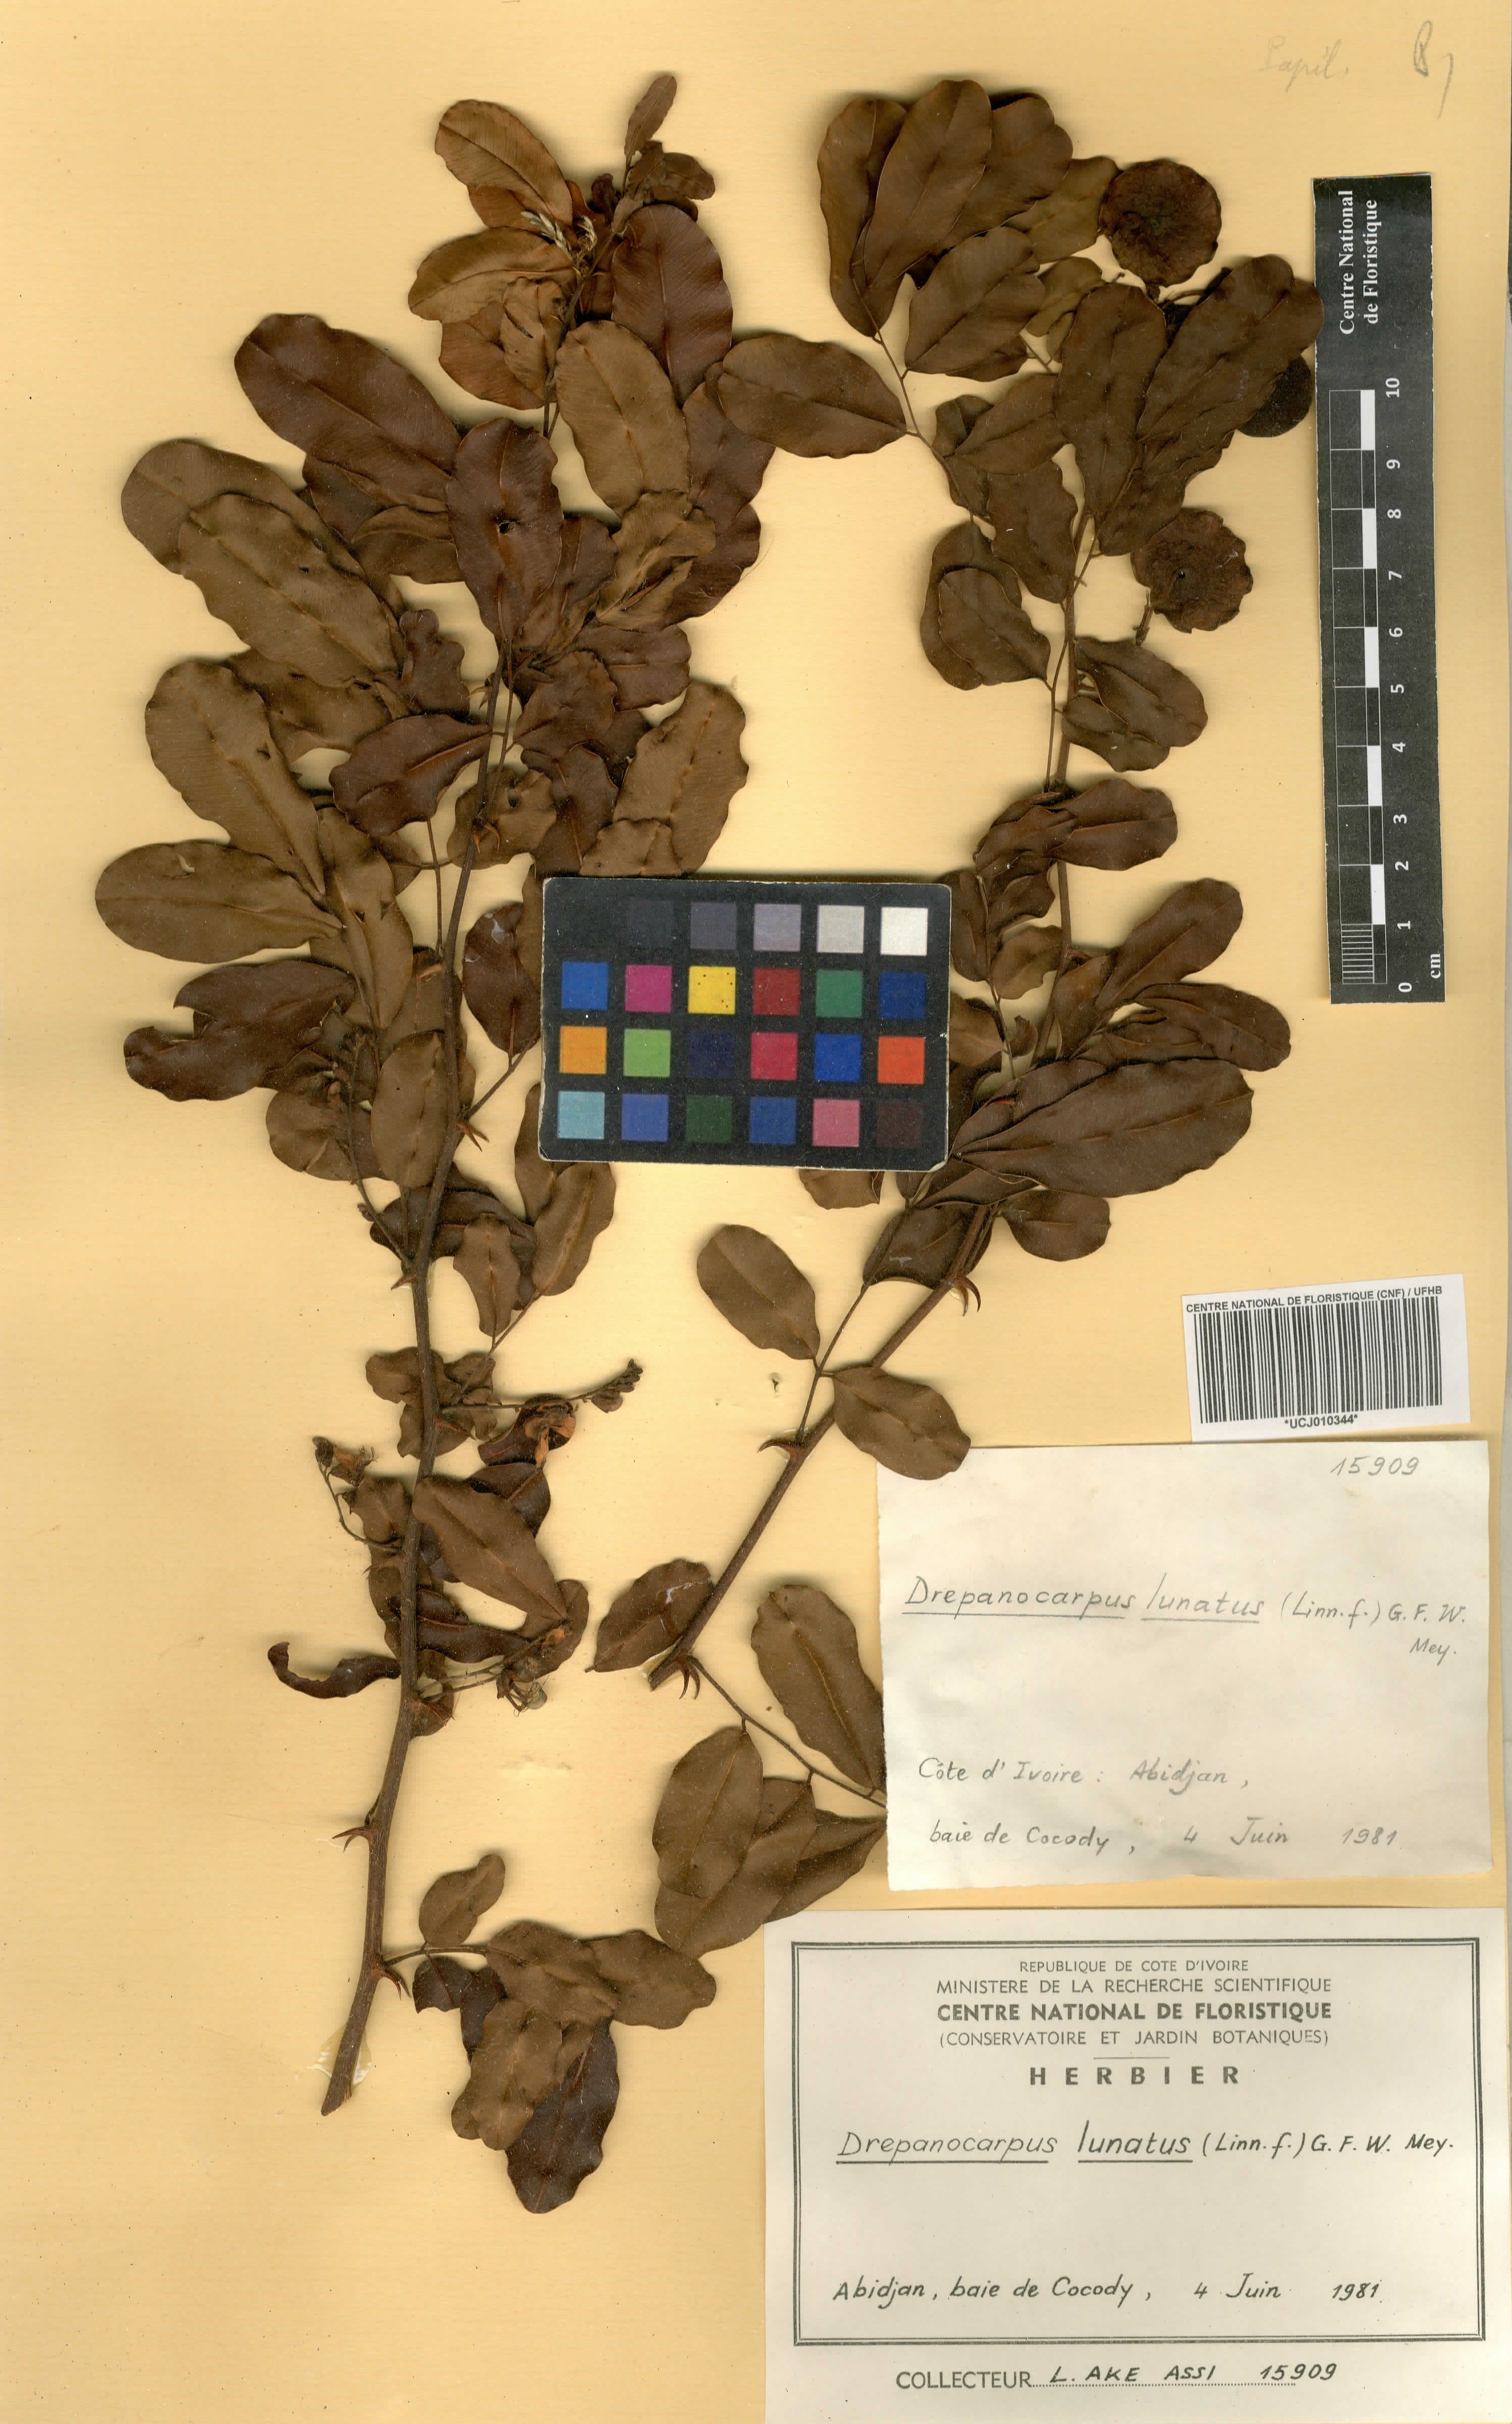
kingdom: Plantae
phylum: Tracheophyta
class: Magnoliopsida
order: Fabales
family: Fabaceae
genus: Machaerium
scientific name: Machaerium lunatum
